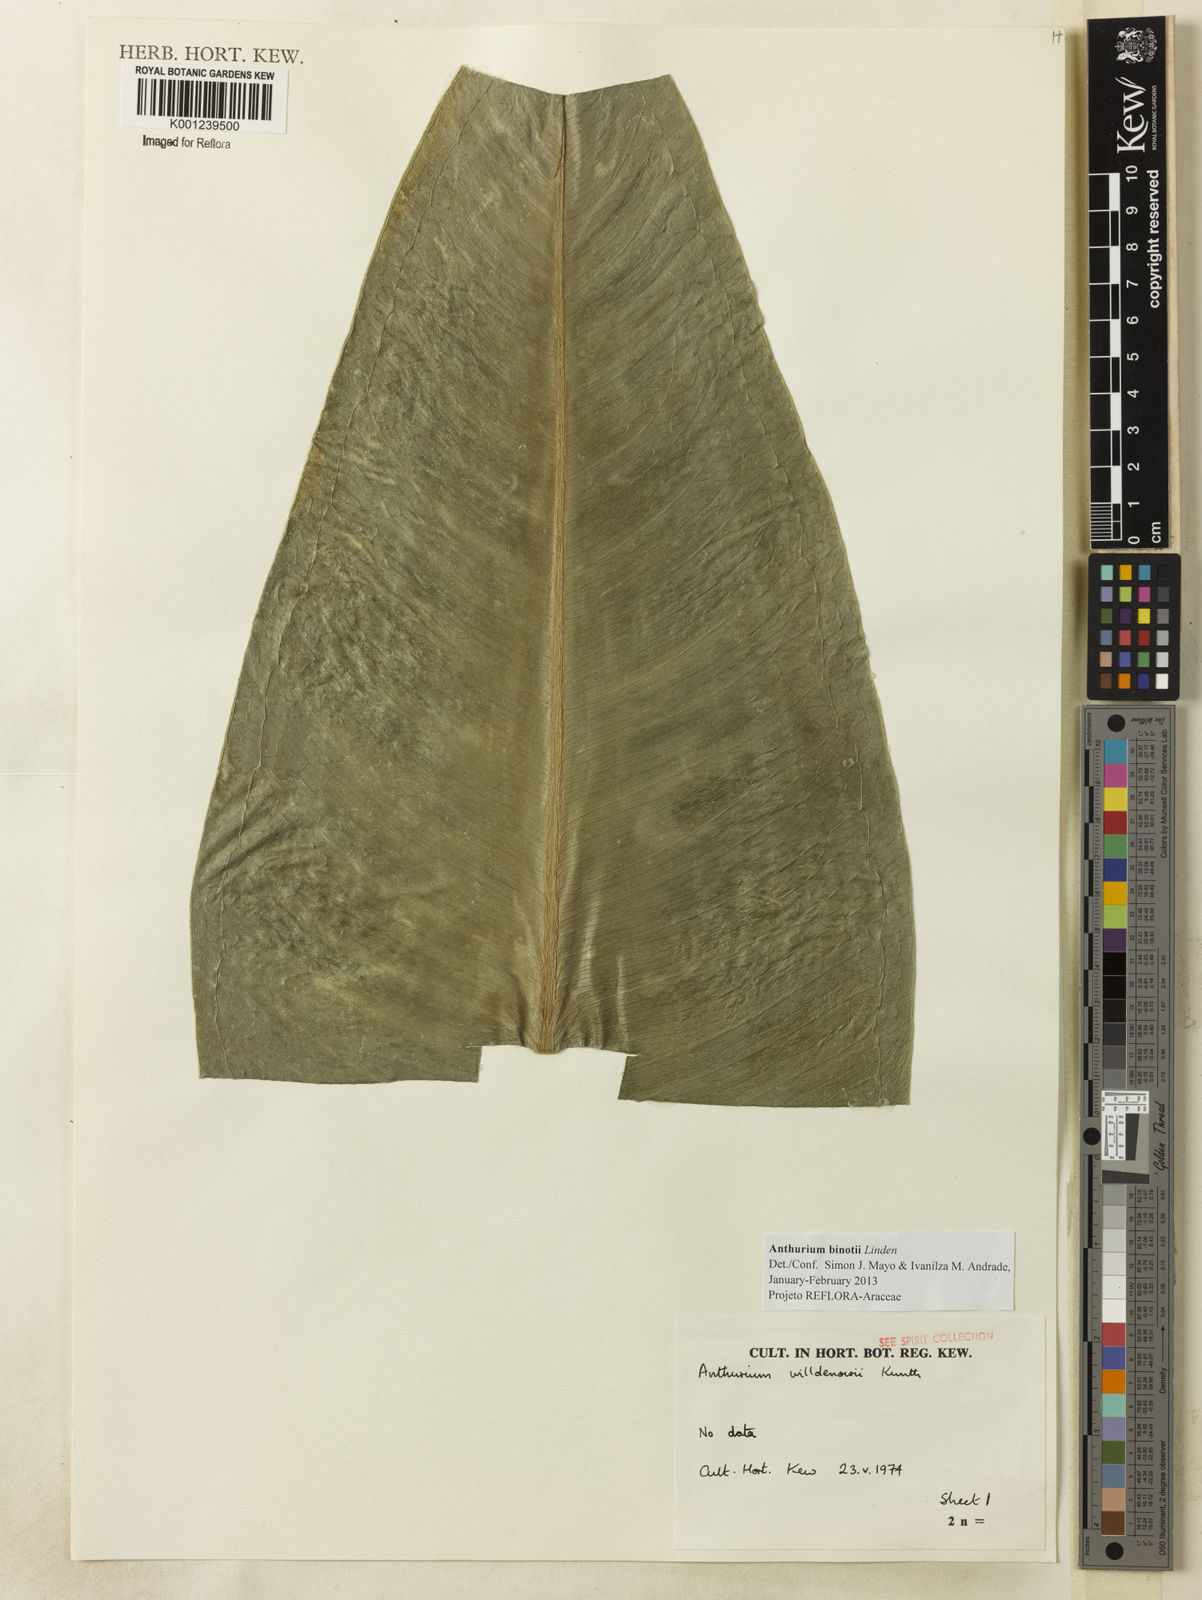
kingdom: Plantae
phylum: Tracheophyta
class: Liliopsida
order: Alismatales
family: Araceae
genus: Anthurium
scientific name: Anthurium binotii
